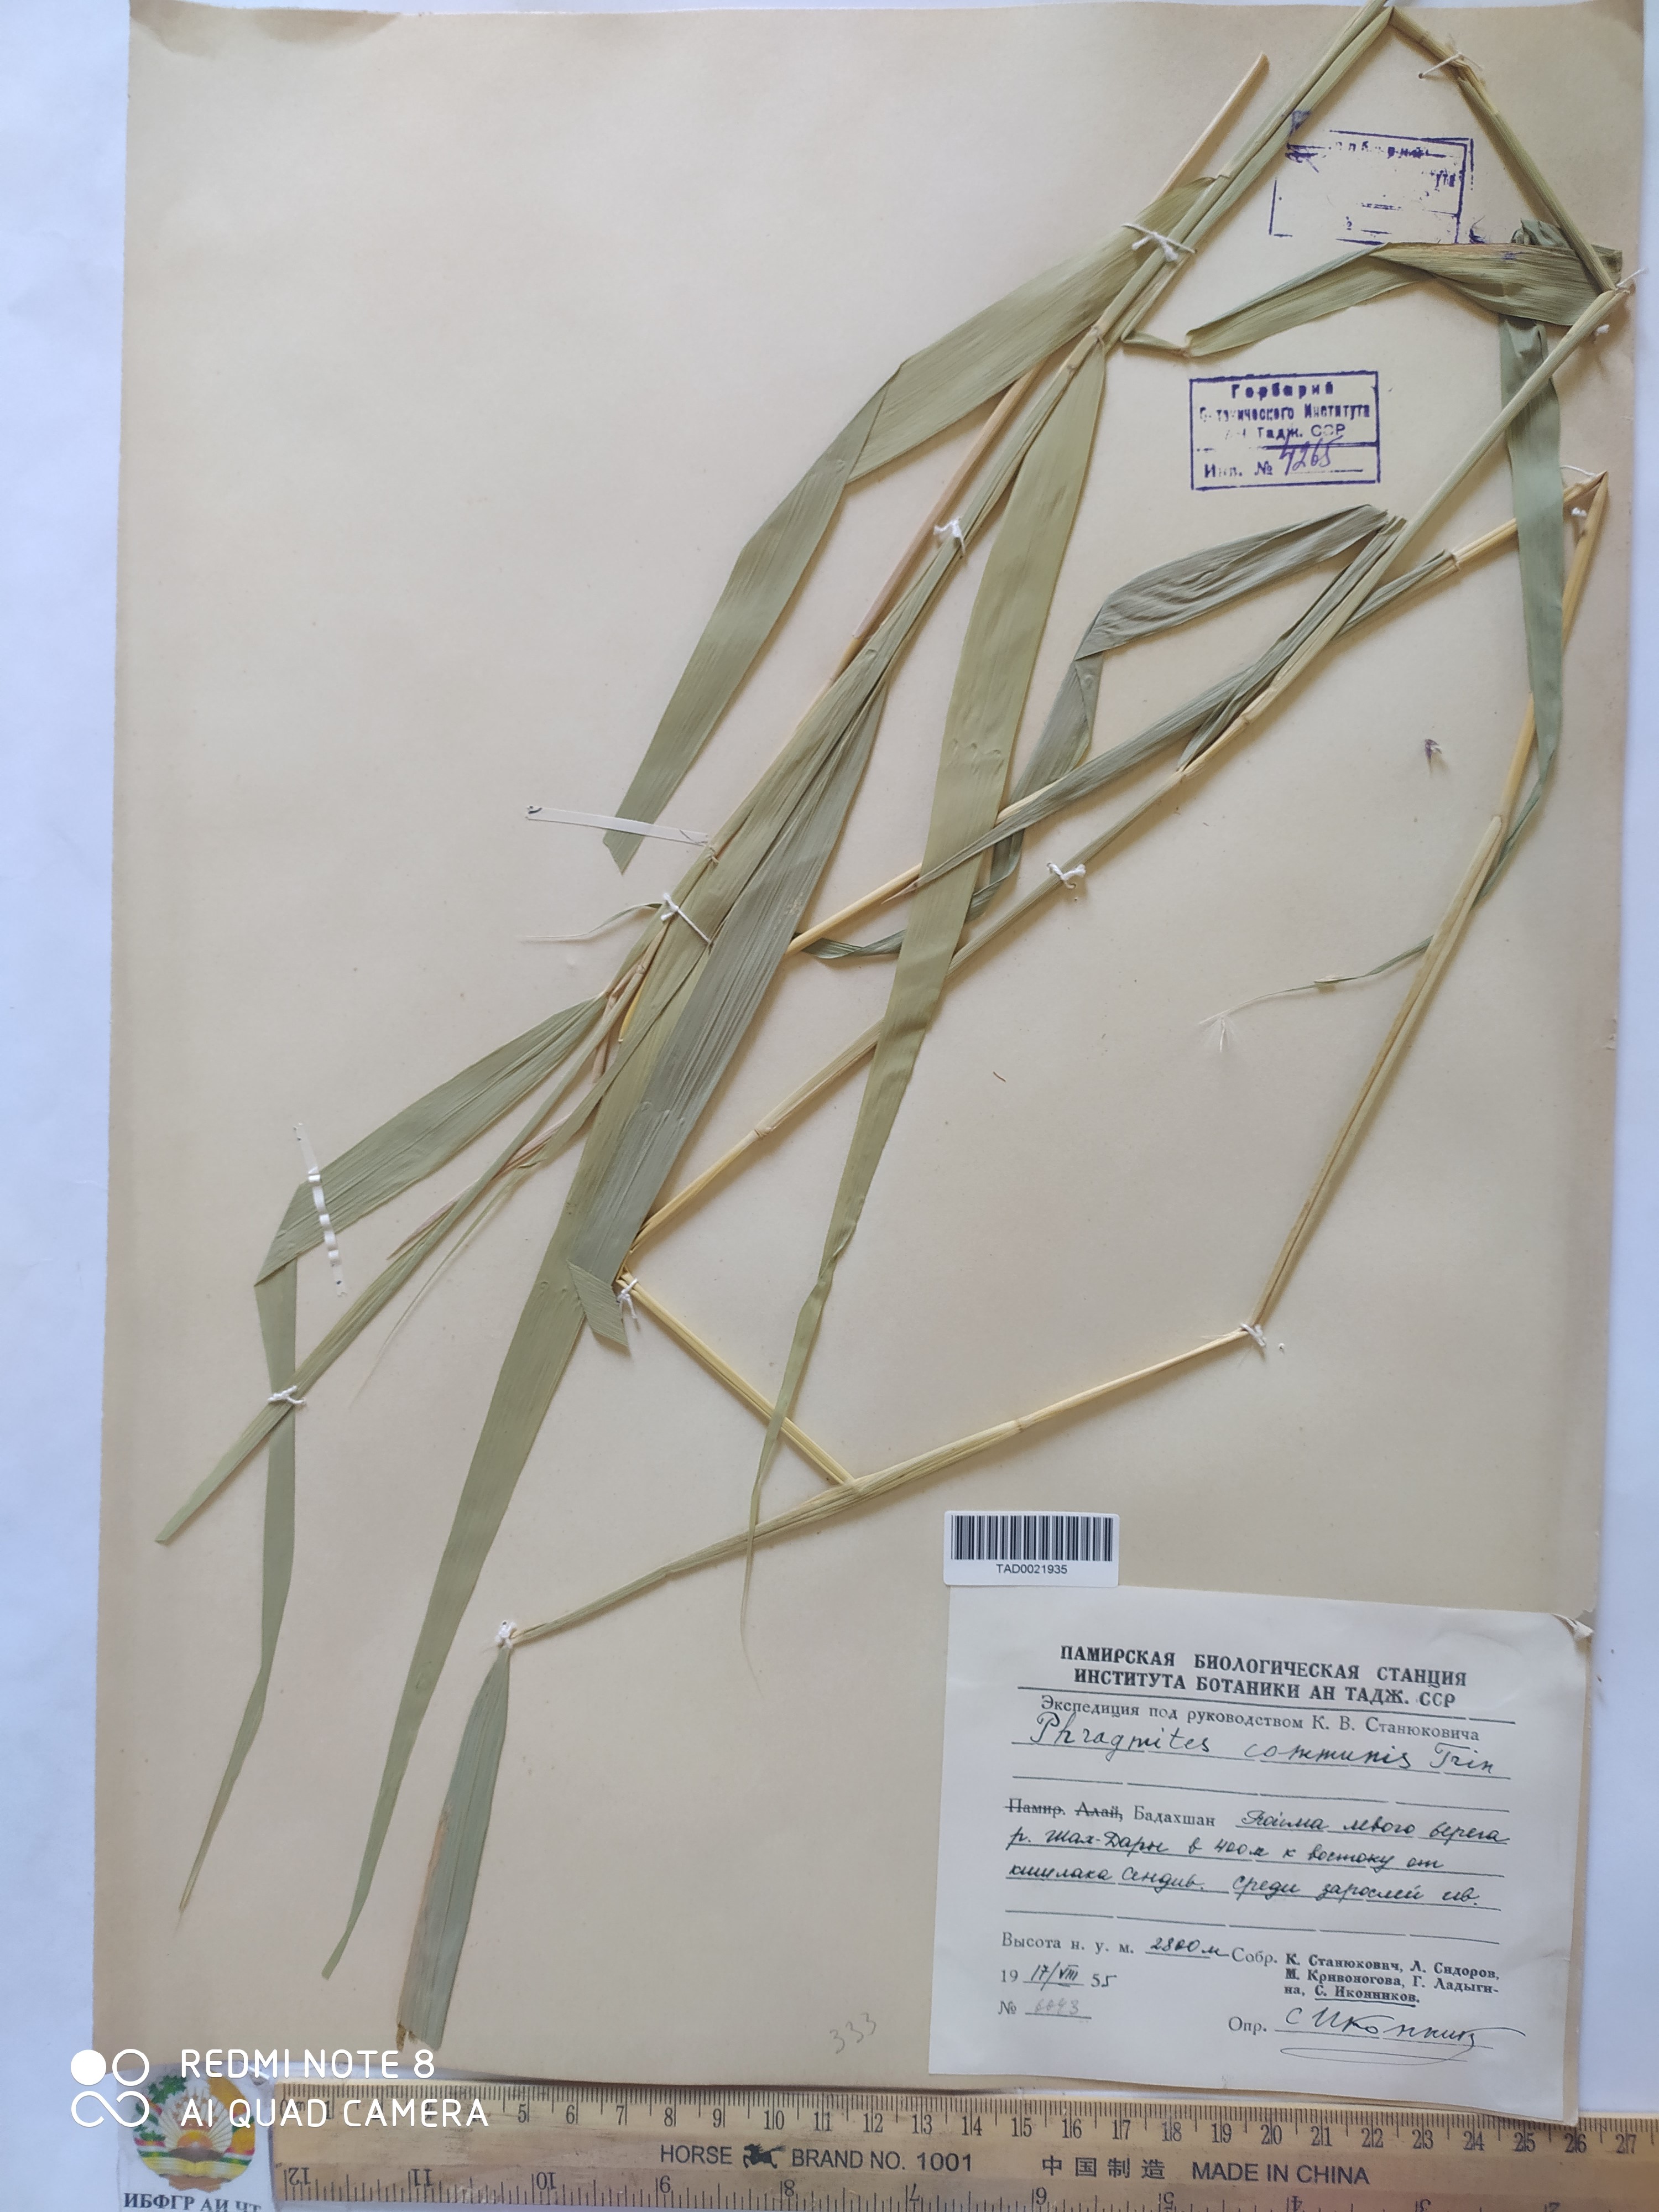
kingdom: Plantae
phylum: Tracheophyta
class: Liliopsida
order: Poales
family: Poaceae
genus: Phragmites
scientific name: Phragmites australis
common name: Common reed
